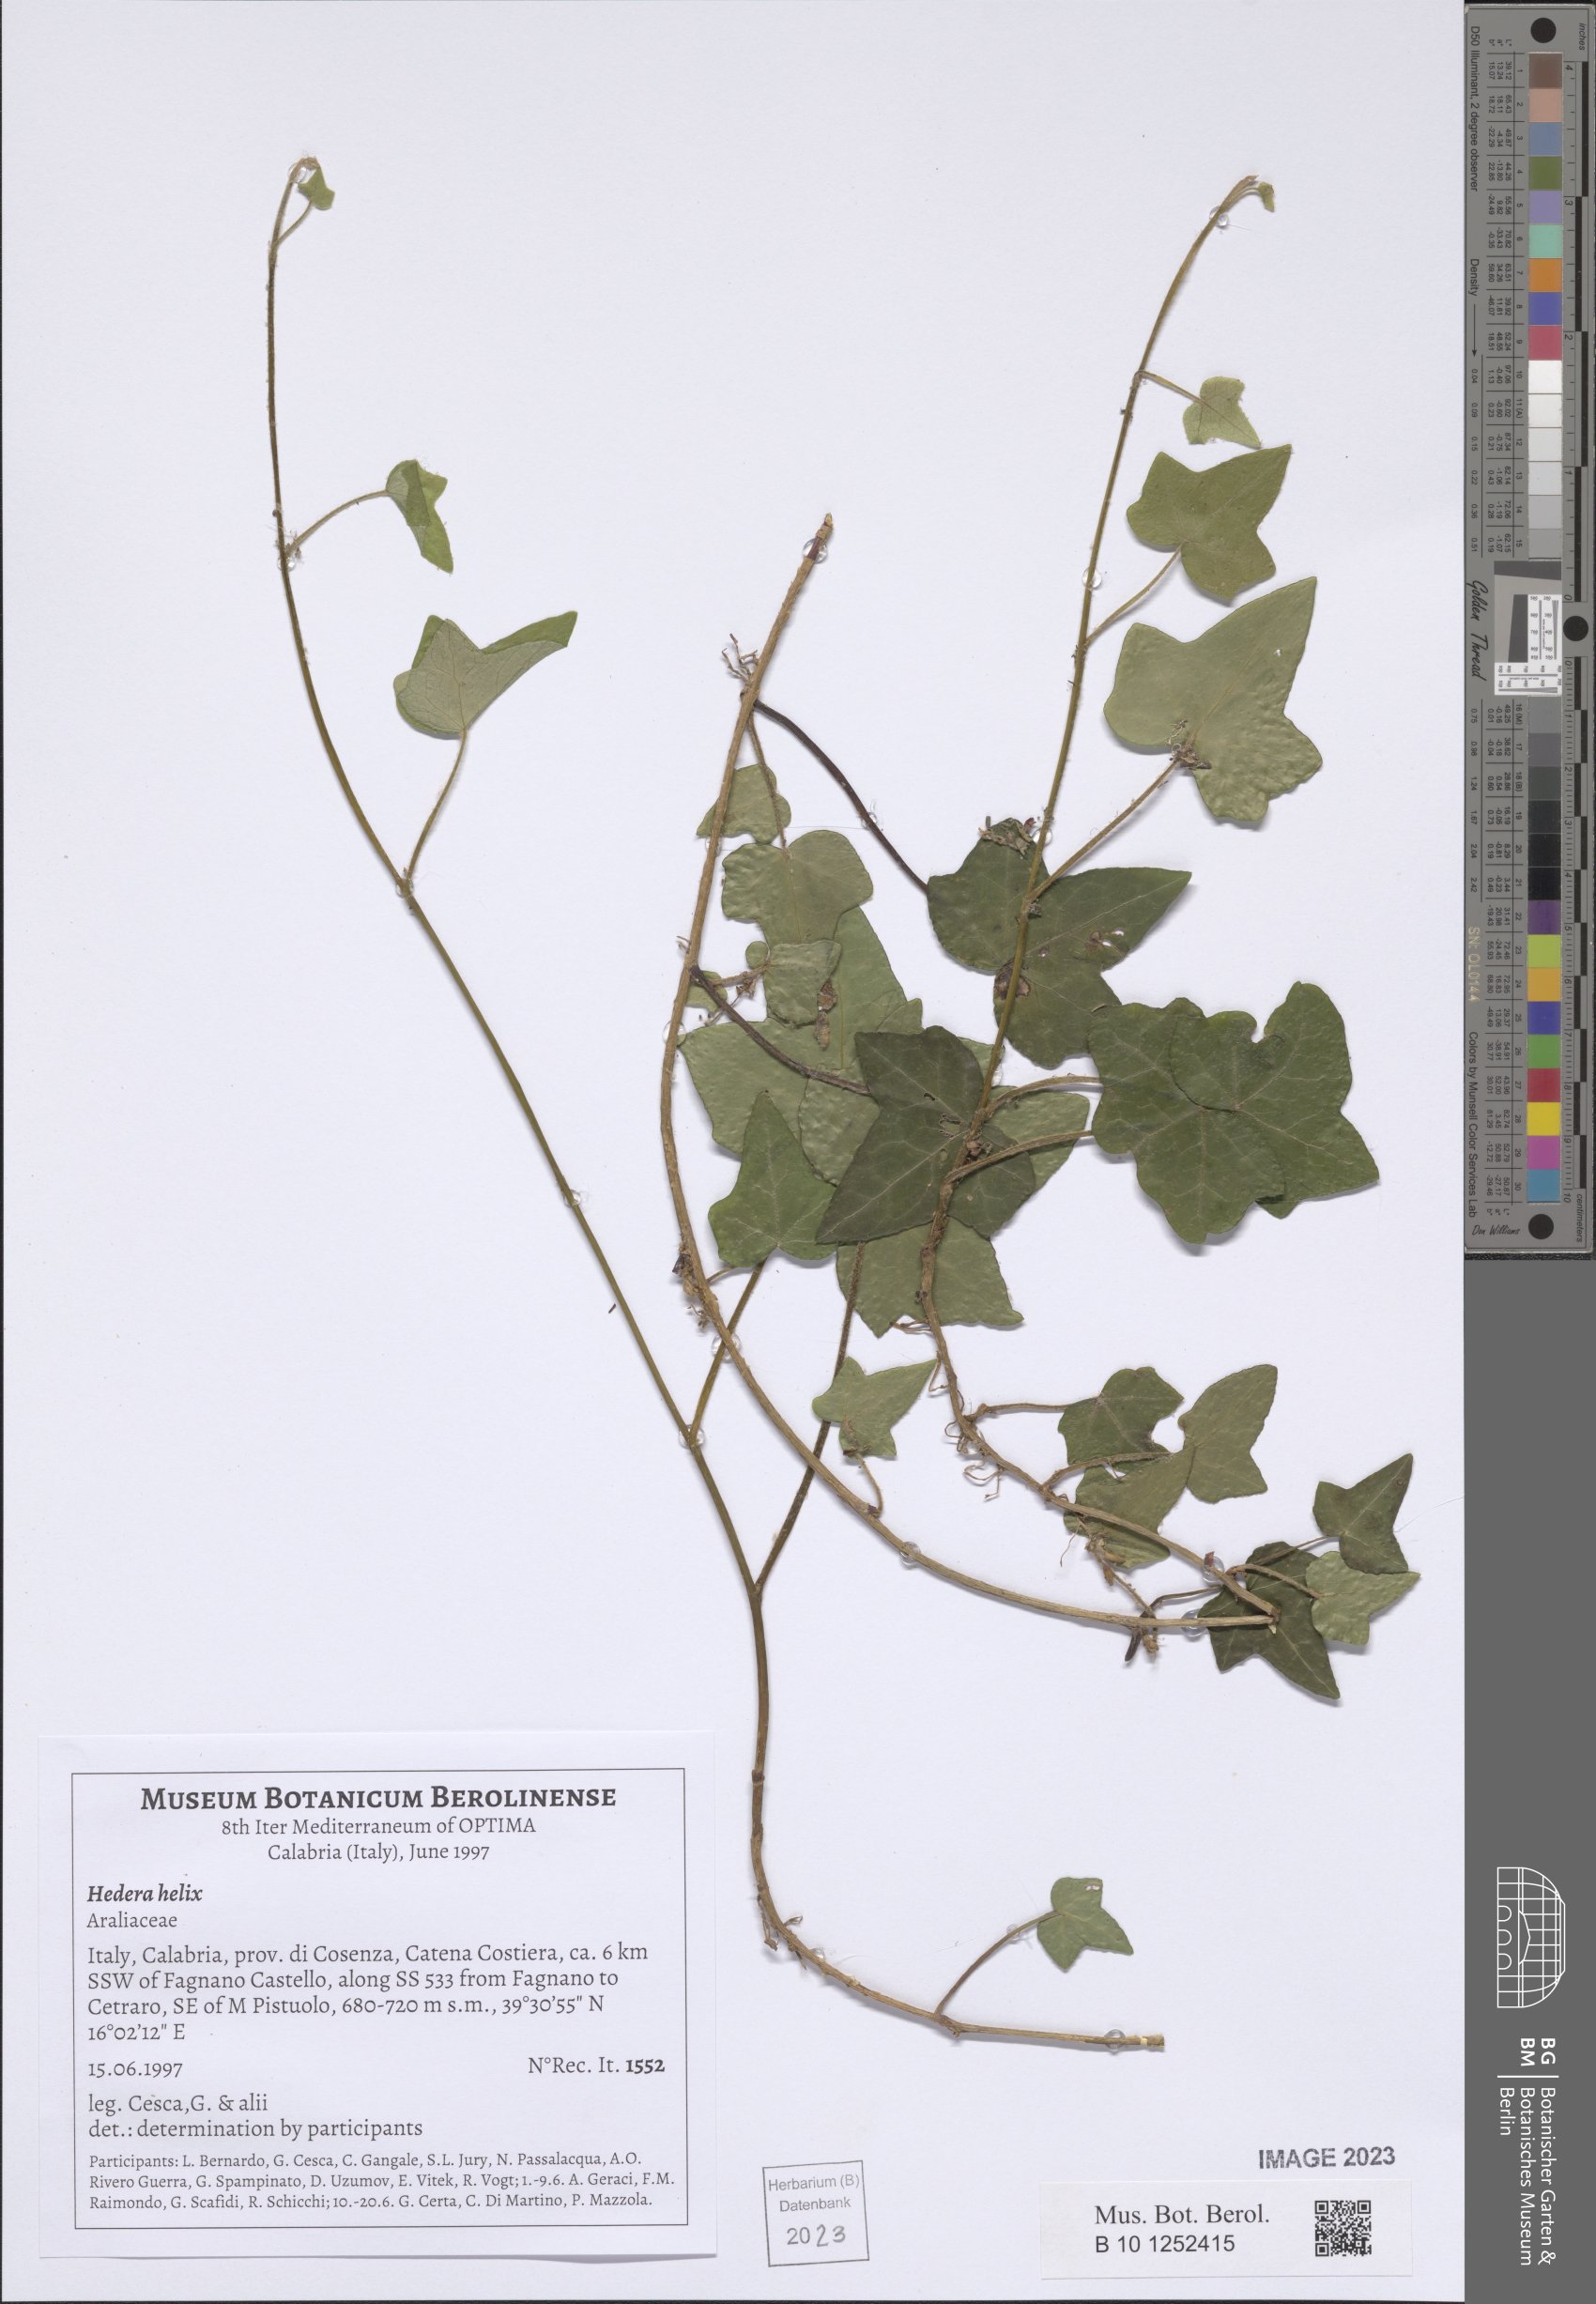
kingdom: Plantae
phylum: Tracheophyta
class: Magnoliopsida
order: Apiales
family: Araliaceae
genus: Hedera
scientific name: Hedera helix
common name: Ivy
